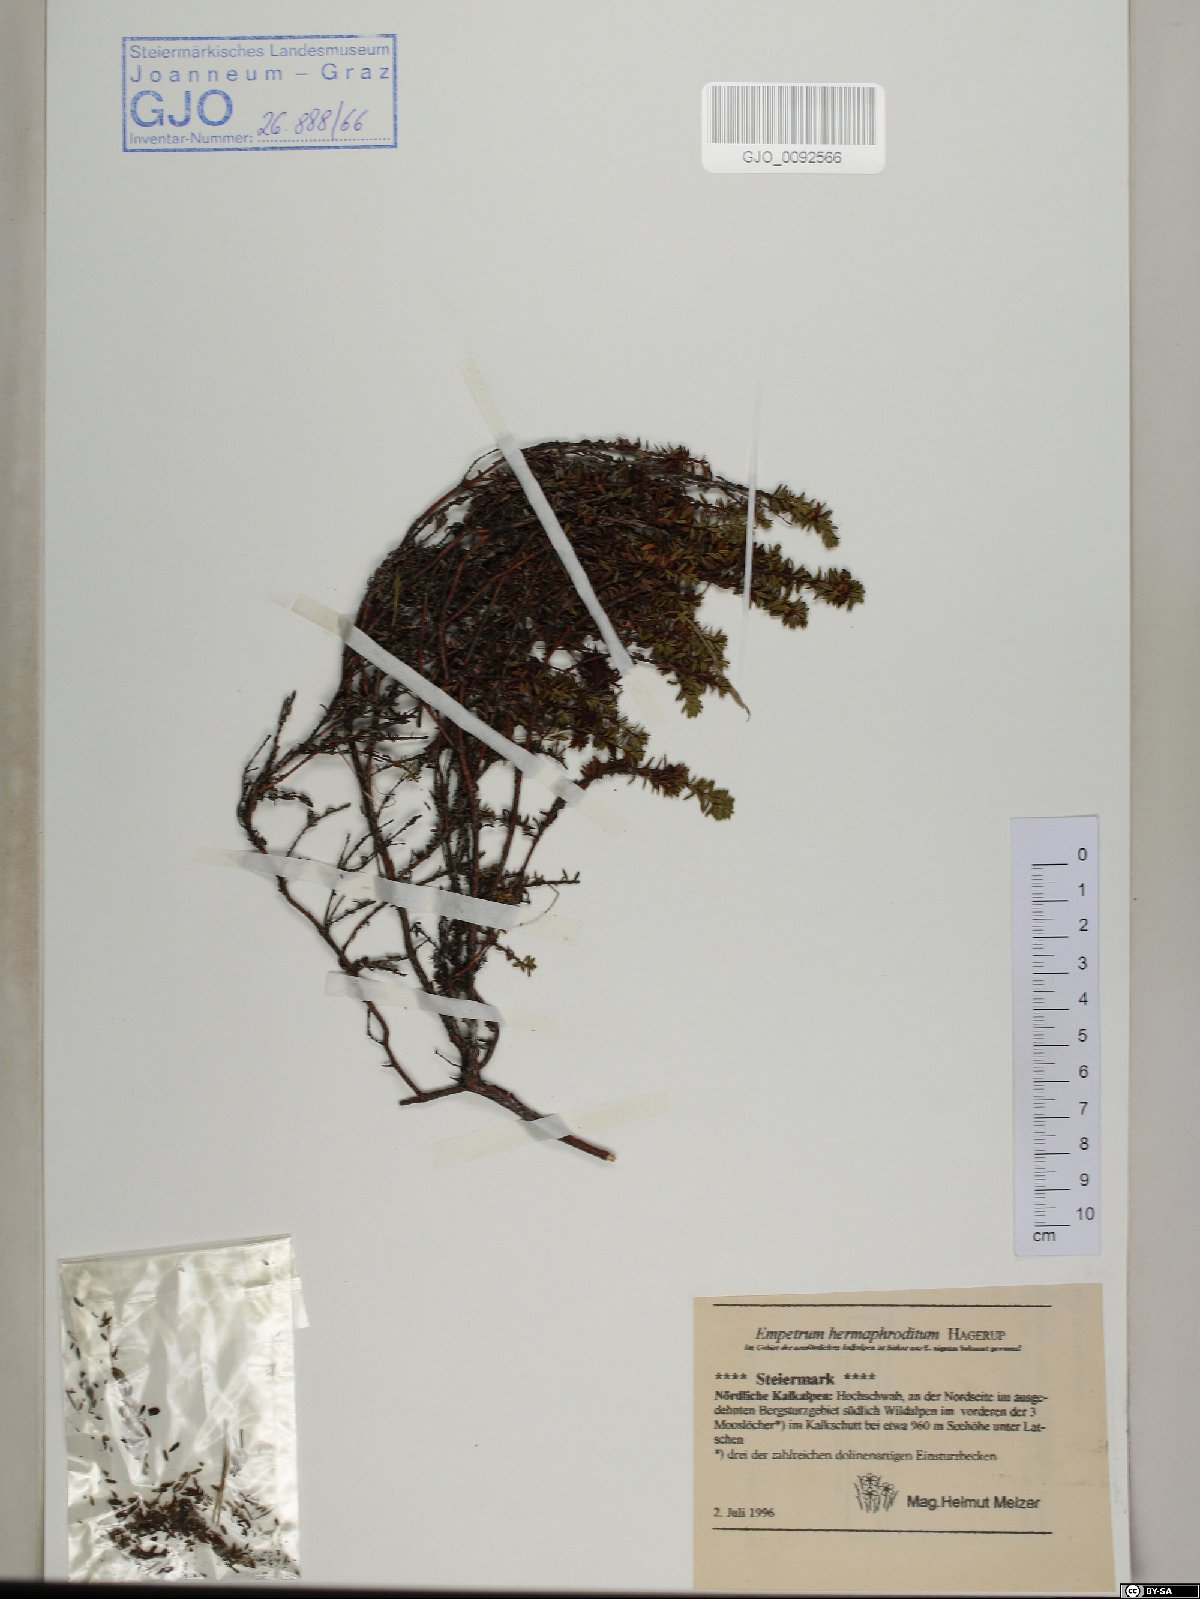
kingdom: Plantae
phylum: Tracheophyta
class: Magnoliopsida
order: Ericales
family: Ericaceae
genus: Empetrum
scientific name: Empetrum hermaphroditum
